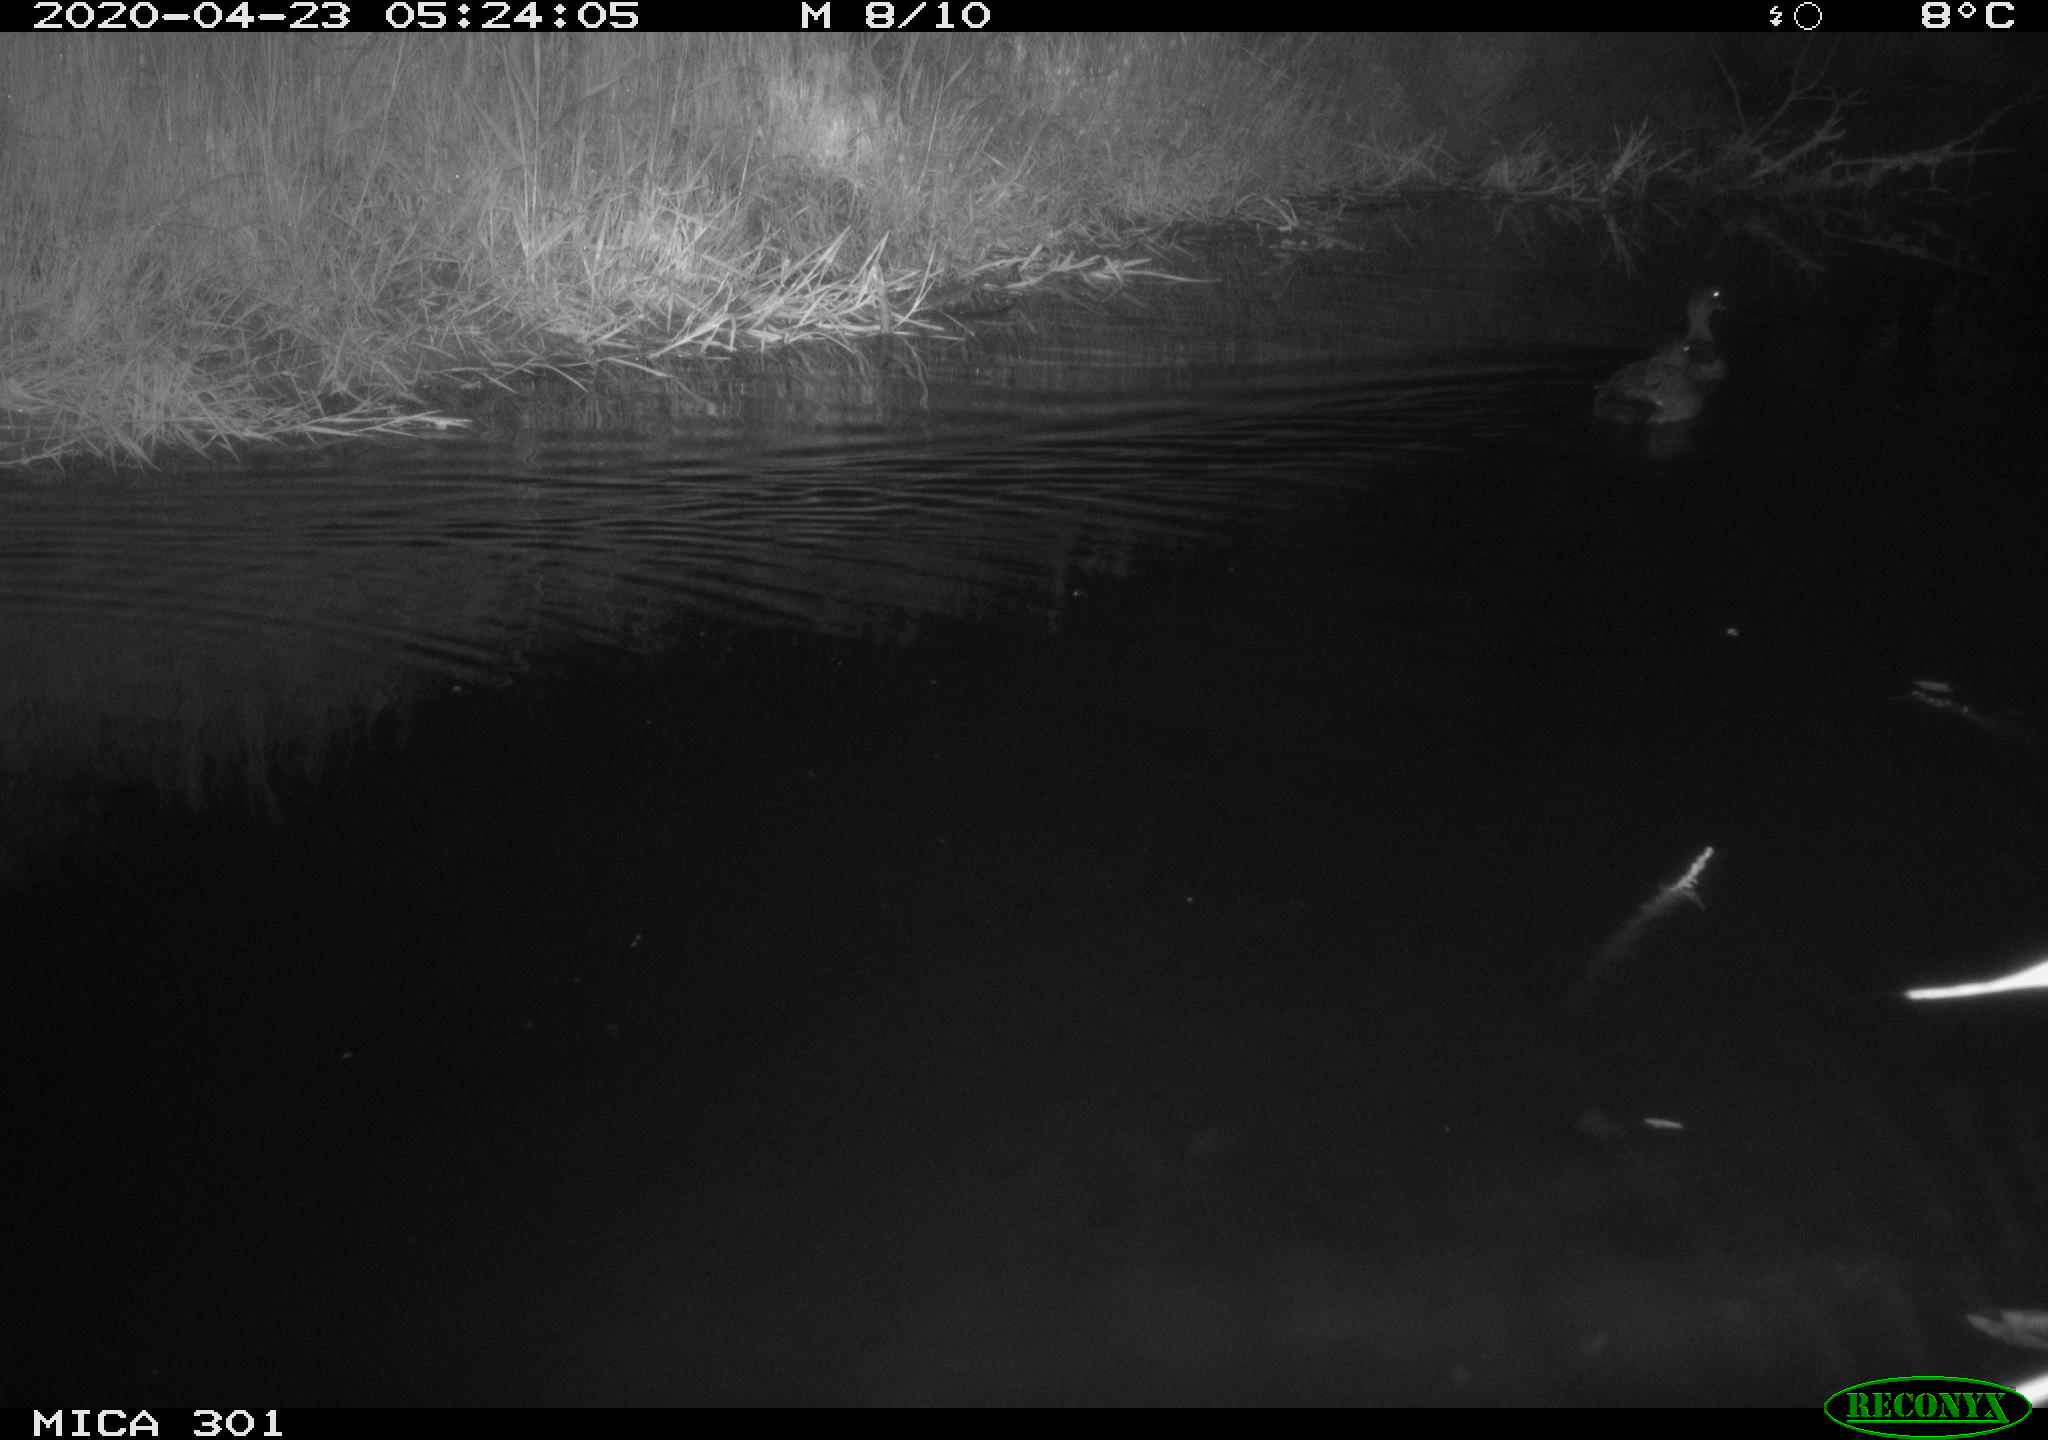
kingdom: Animalia
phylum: Chordata
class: Aves
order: Anseriformes
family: Anatidae
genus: Mareca
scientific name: Mareca strepera
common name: Gadwall
